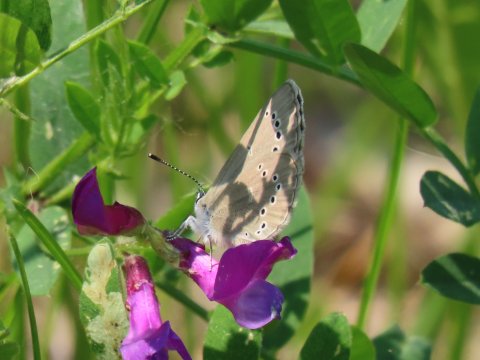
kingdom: Animalia
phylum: Arthropoda
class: Insecta
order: Lepidoptera
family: Lycaenidae
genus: Glaucopsyche
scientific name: Glaucopsyche lygdamus
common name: Silvery Blue
